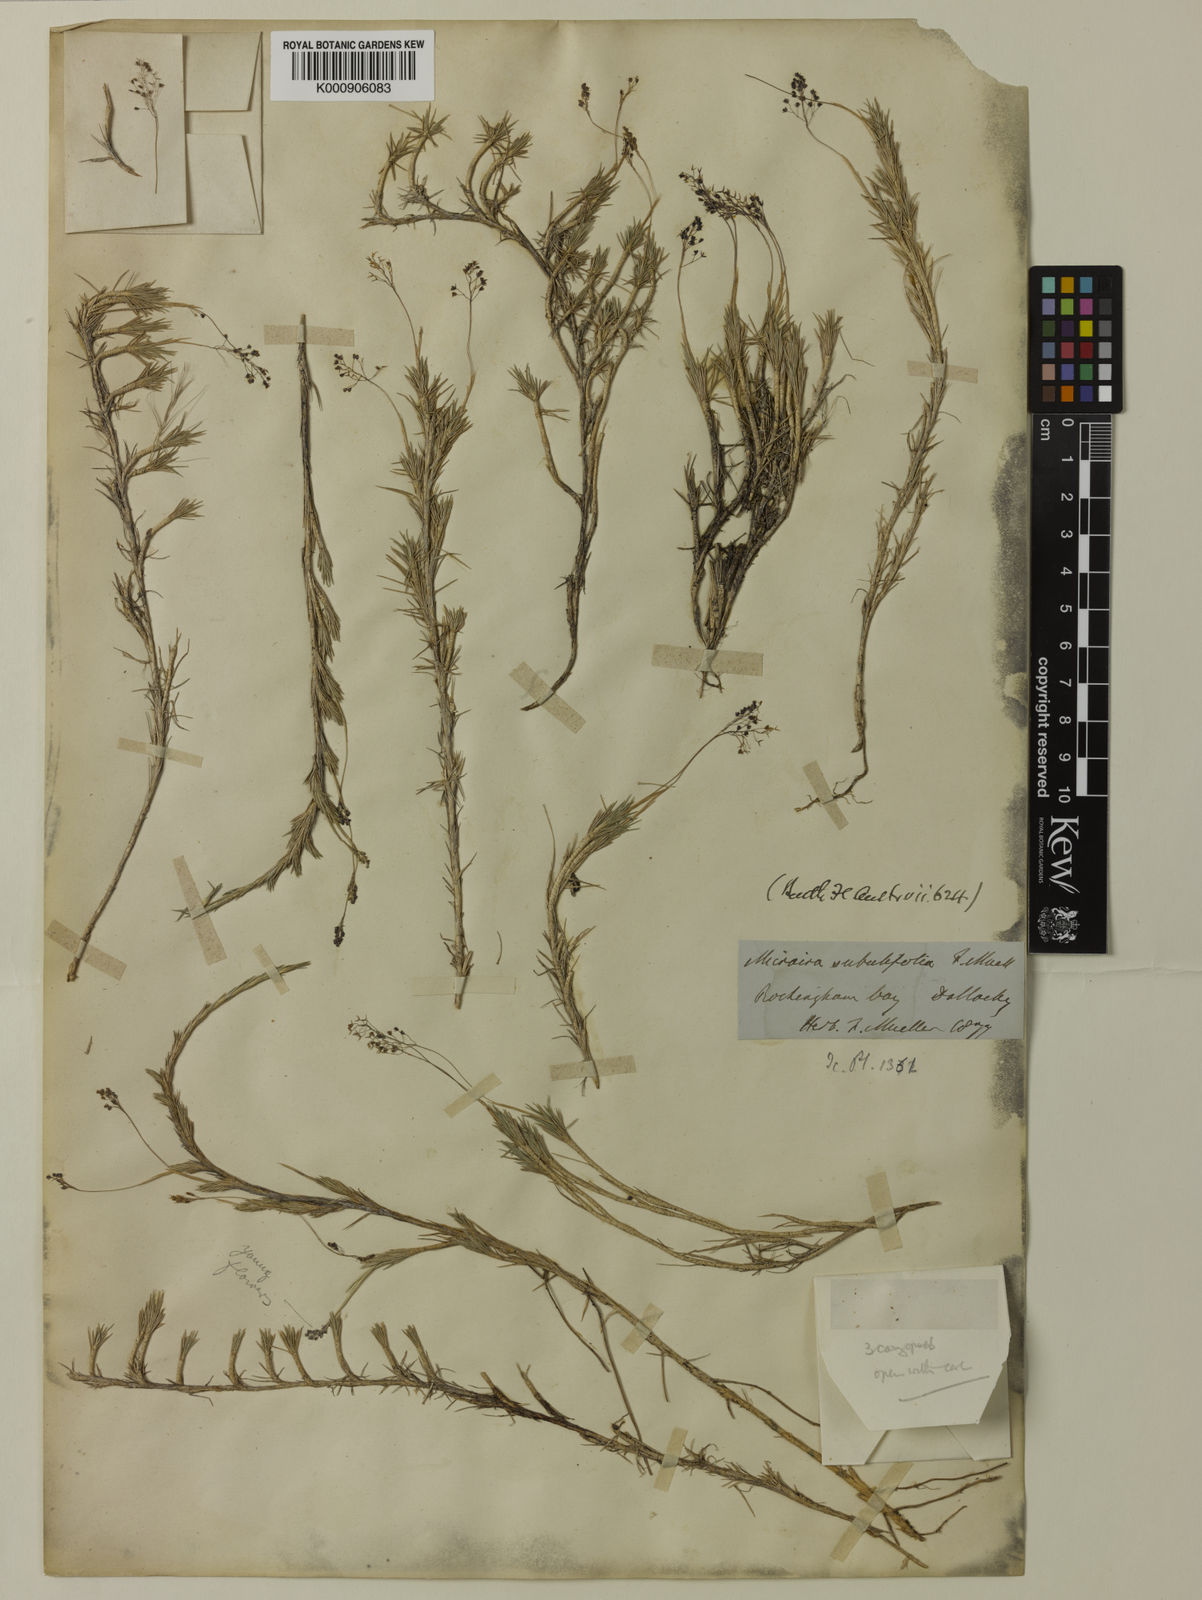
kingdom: Plantae
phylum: Tracheophyta
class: Liliopsida
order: Poales
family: Poaceae
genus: Micraira
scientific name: Micraira subulifolia
